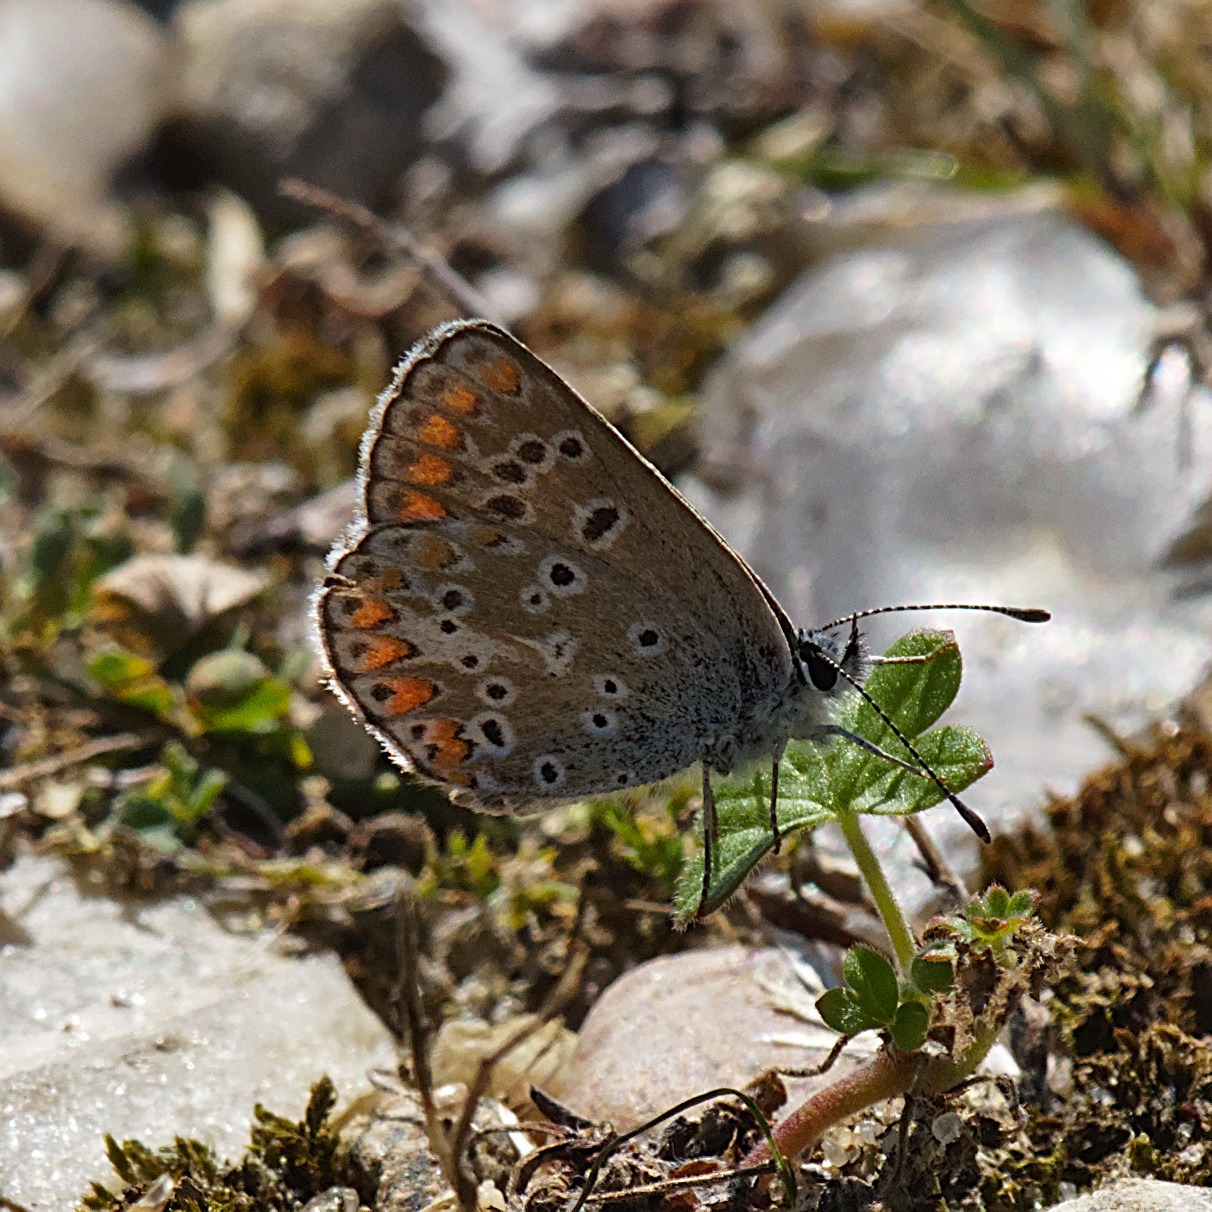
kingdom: Animalia
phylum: Arthropoda
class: Insecta
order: Lepidoptera
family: Lycaenidae
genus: Aricia
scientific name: Aricia agestis
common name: Rødplettet blåfugl
